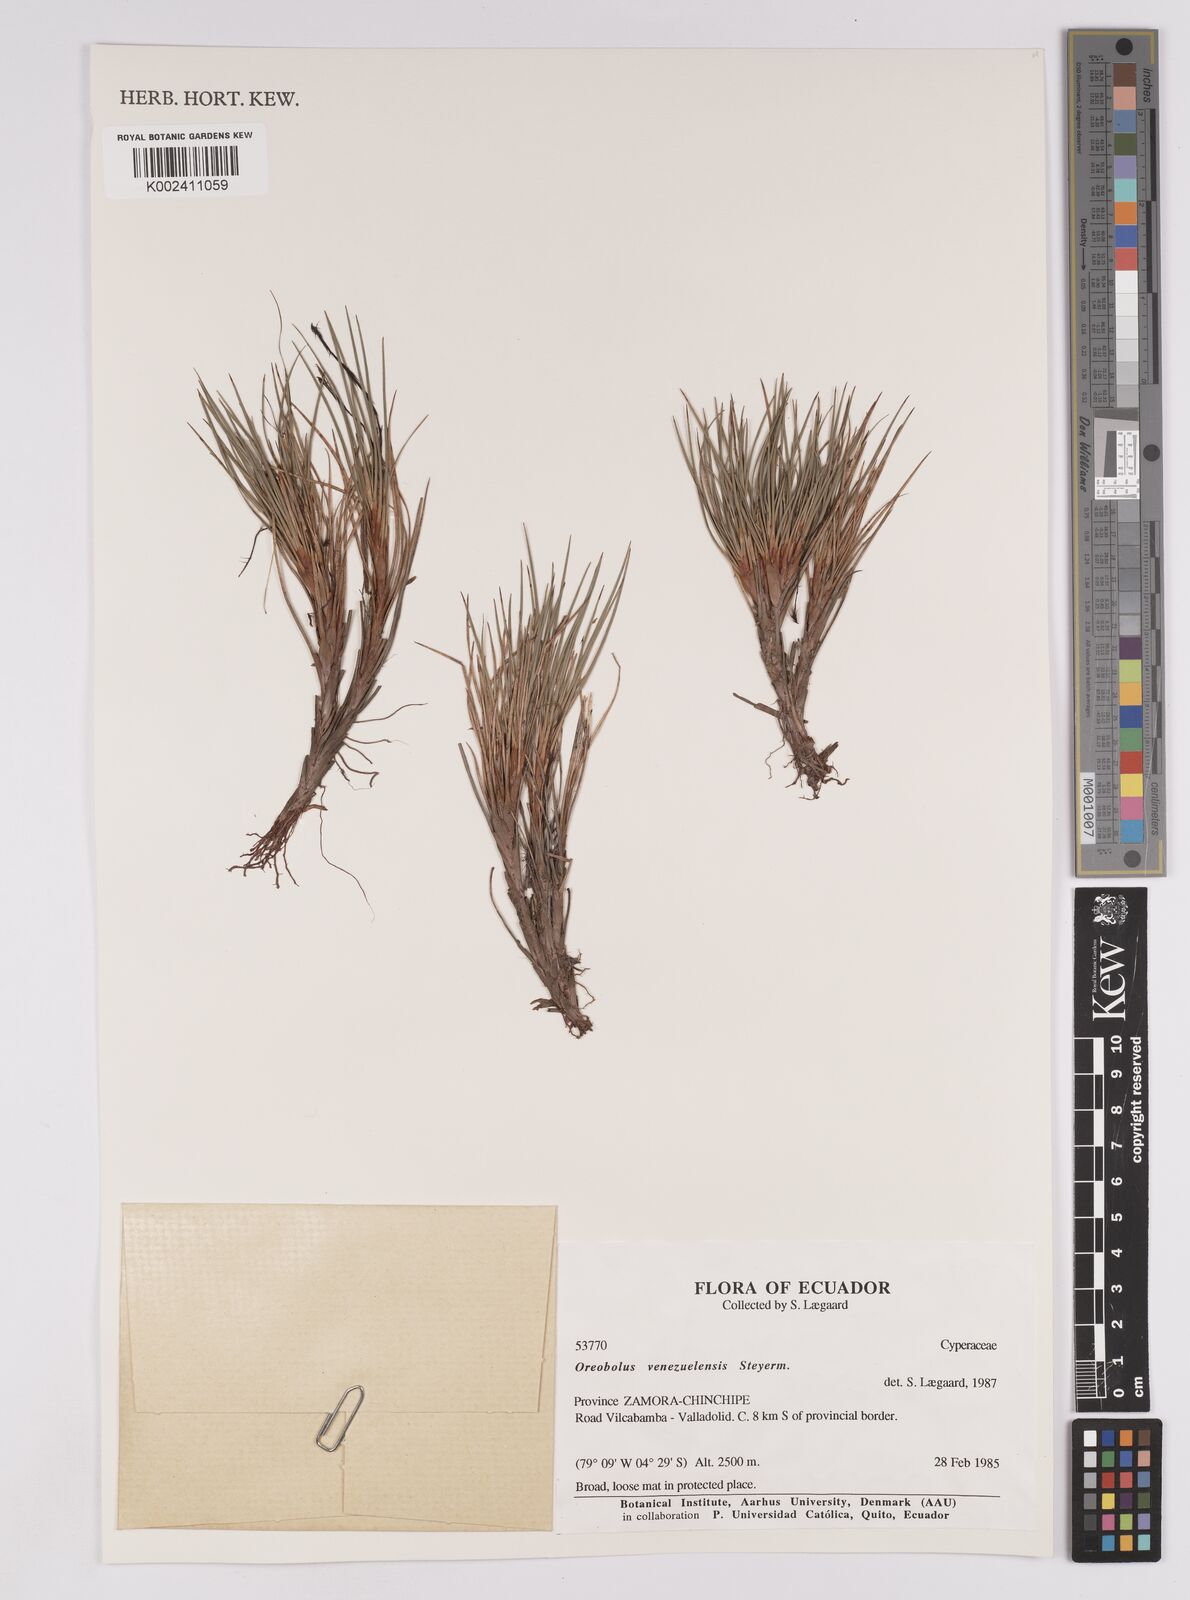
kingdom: Plantae
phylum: Tracheophyta
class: Liliopsida
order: Poales
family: Cyperaceae
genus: Oreobolus
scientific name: Oreobolus venezuelensis
